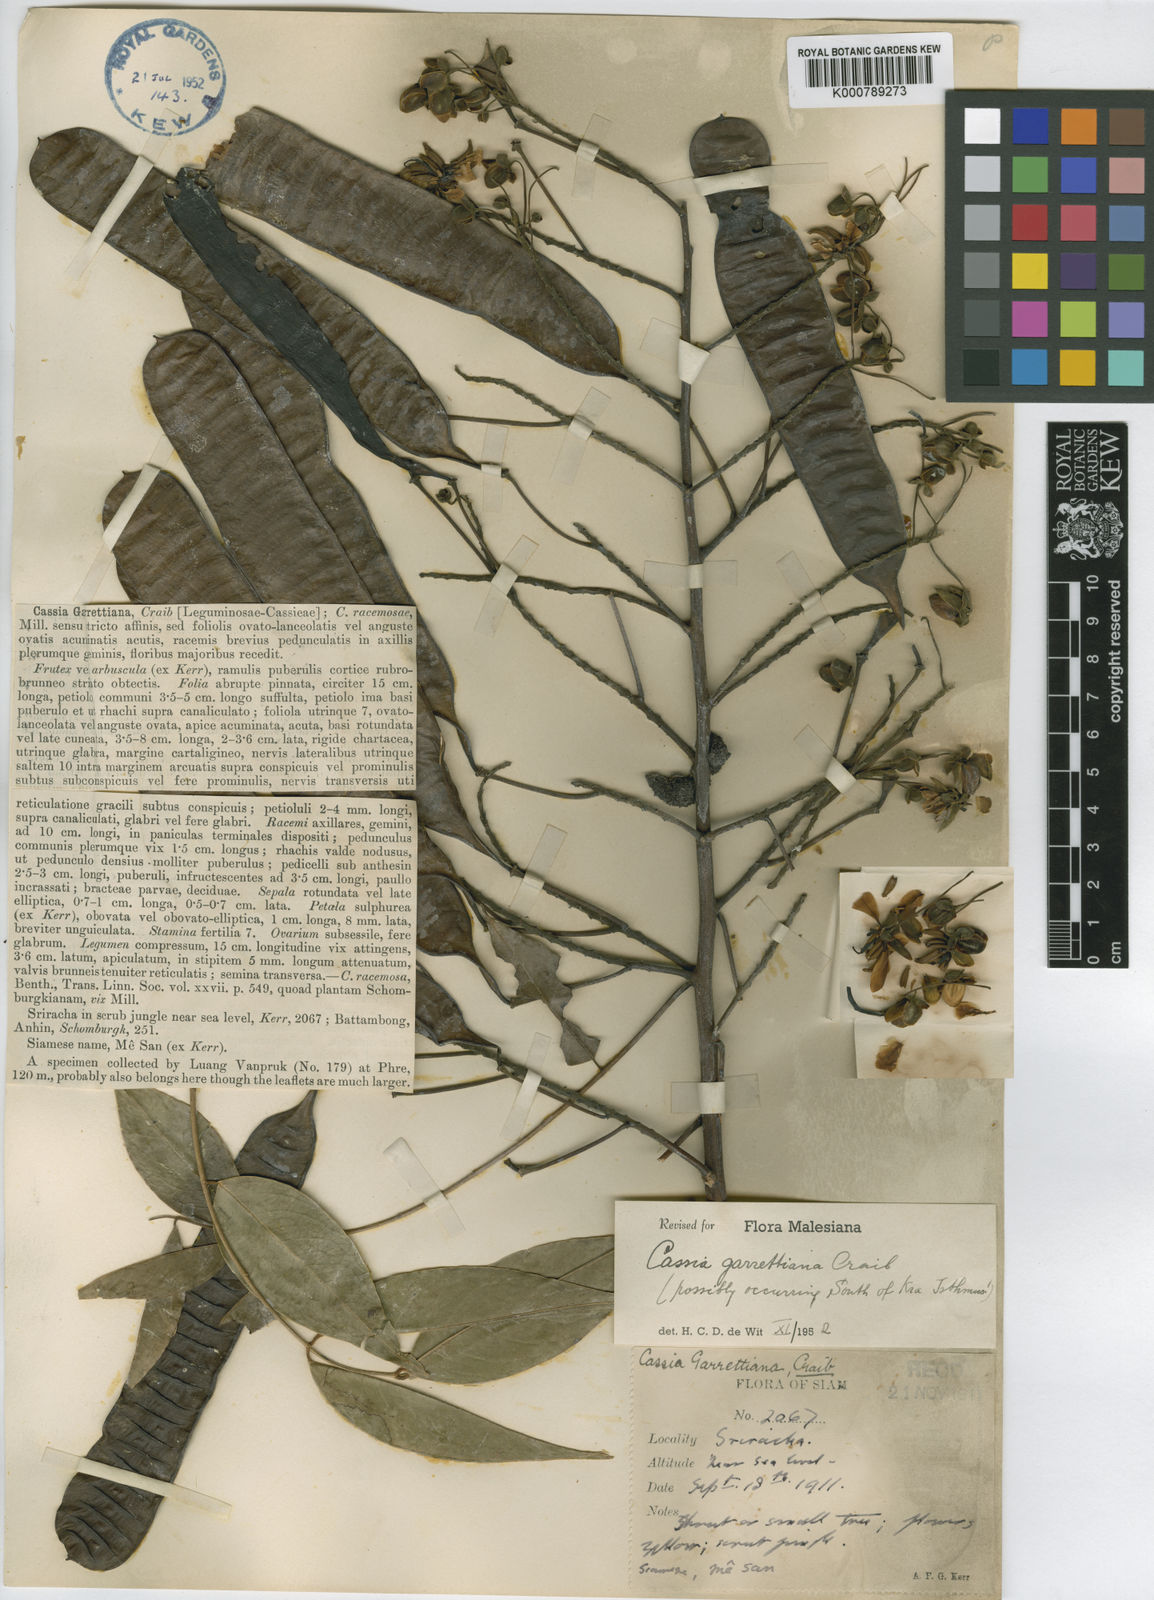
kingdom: Plantae
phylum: Tracheophyta
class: Magnoliopsida
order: Fabales
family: Fabaceae
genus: Senna
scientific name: Senna garrettiana
